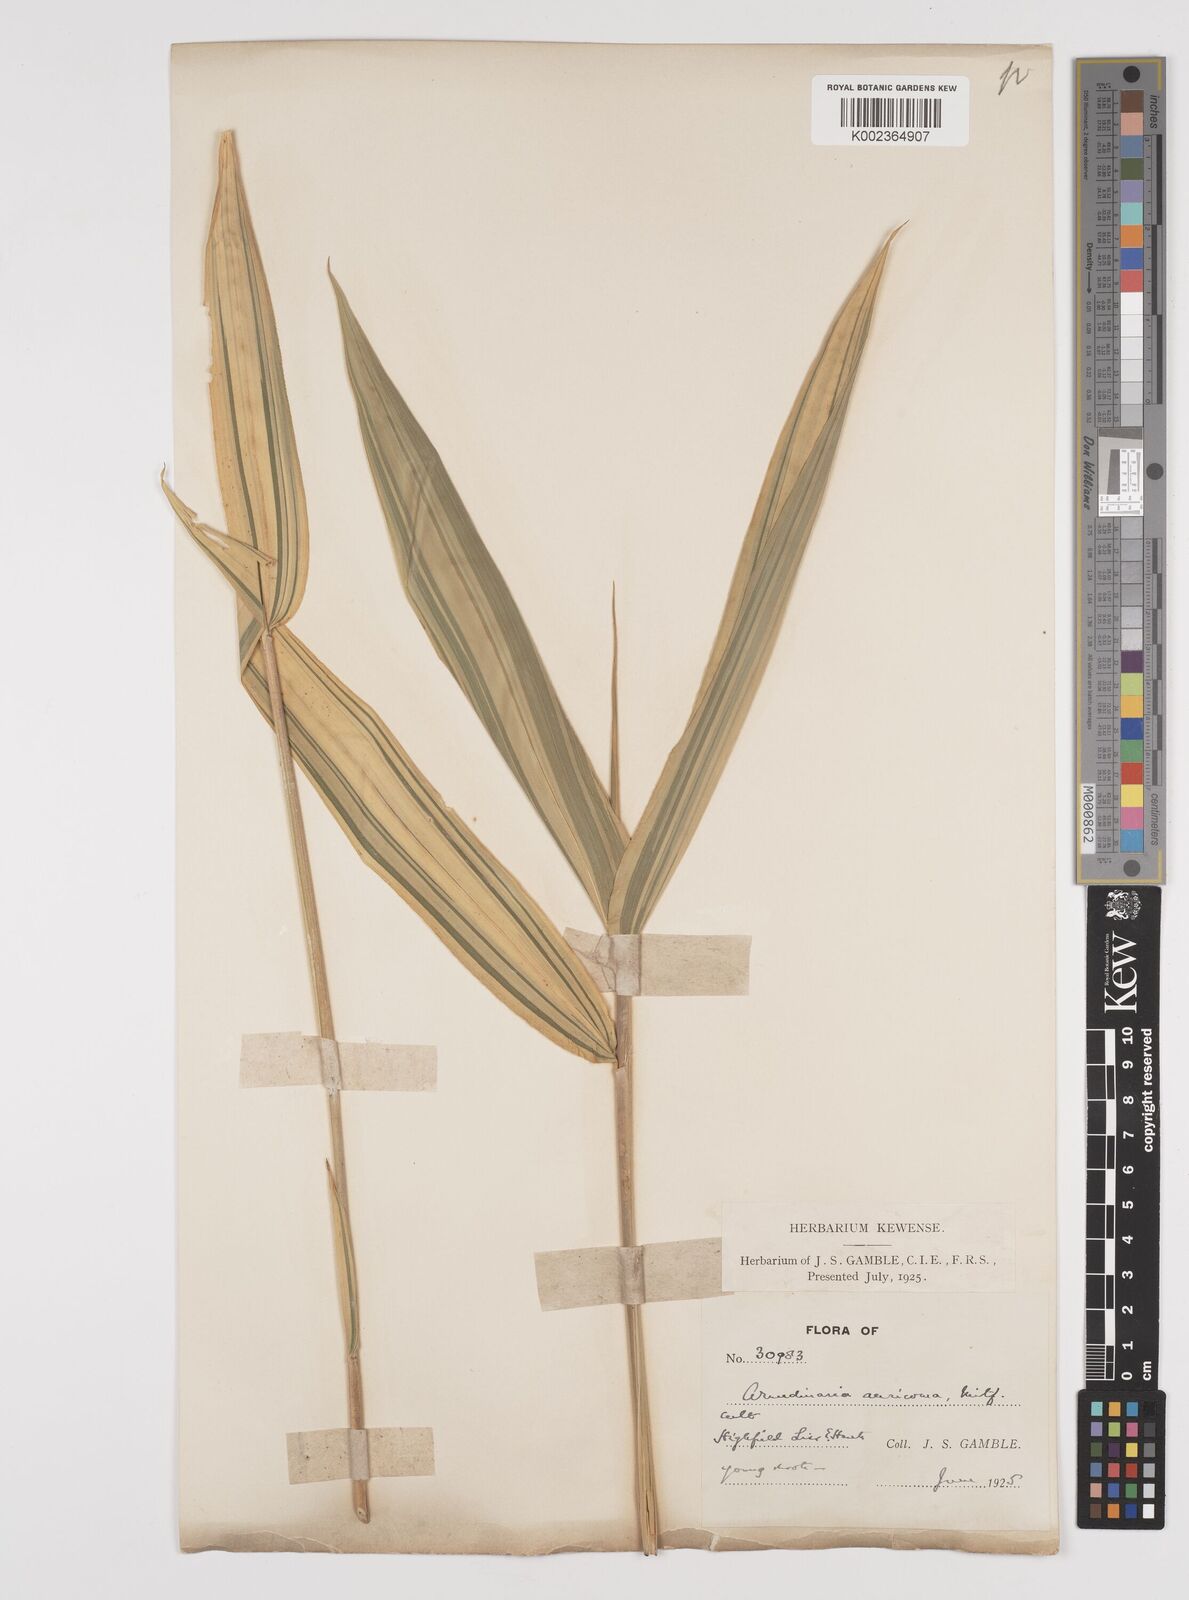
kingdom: Plantae
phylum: Tracheophyta
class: Liliopsida
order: Poales
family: Poaceae
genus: Pleioblastus
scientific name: Pleioblastus viridistriatus
